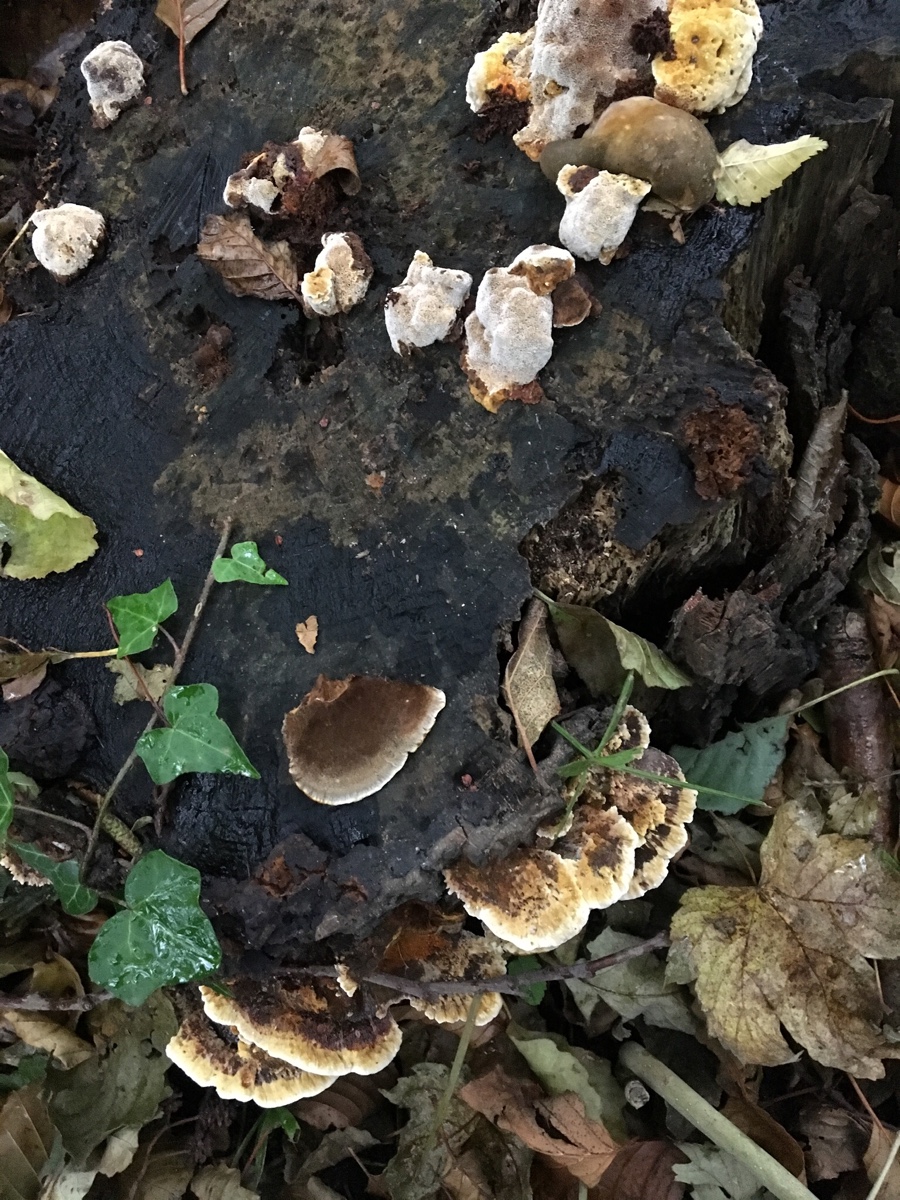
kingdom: Fungi
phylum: Basidiomycota
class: Agaricomycetes
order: Hymenochaetales
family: Hymenochaetaceae
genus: Xanthoporia
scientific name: Xanthoporia radiata
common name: elle-spejlporesvamp
